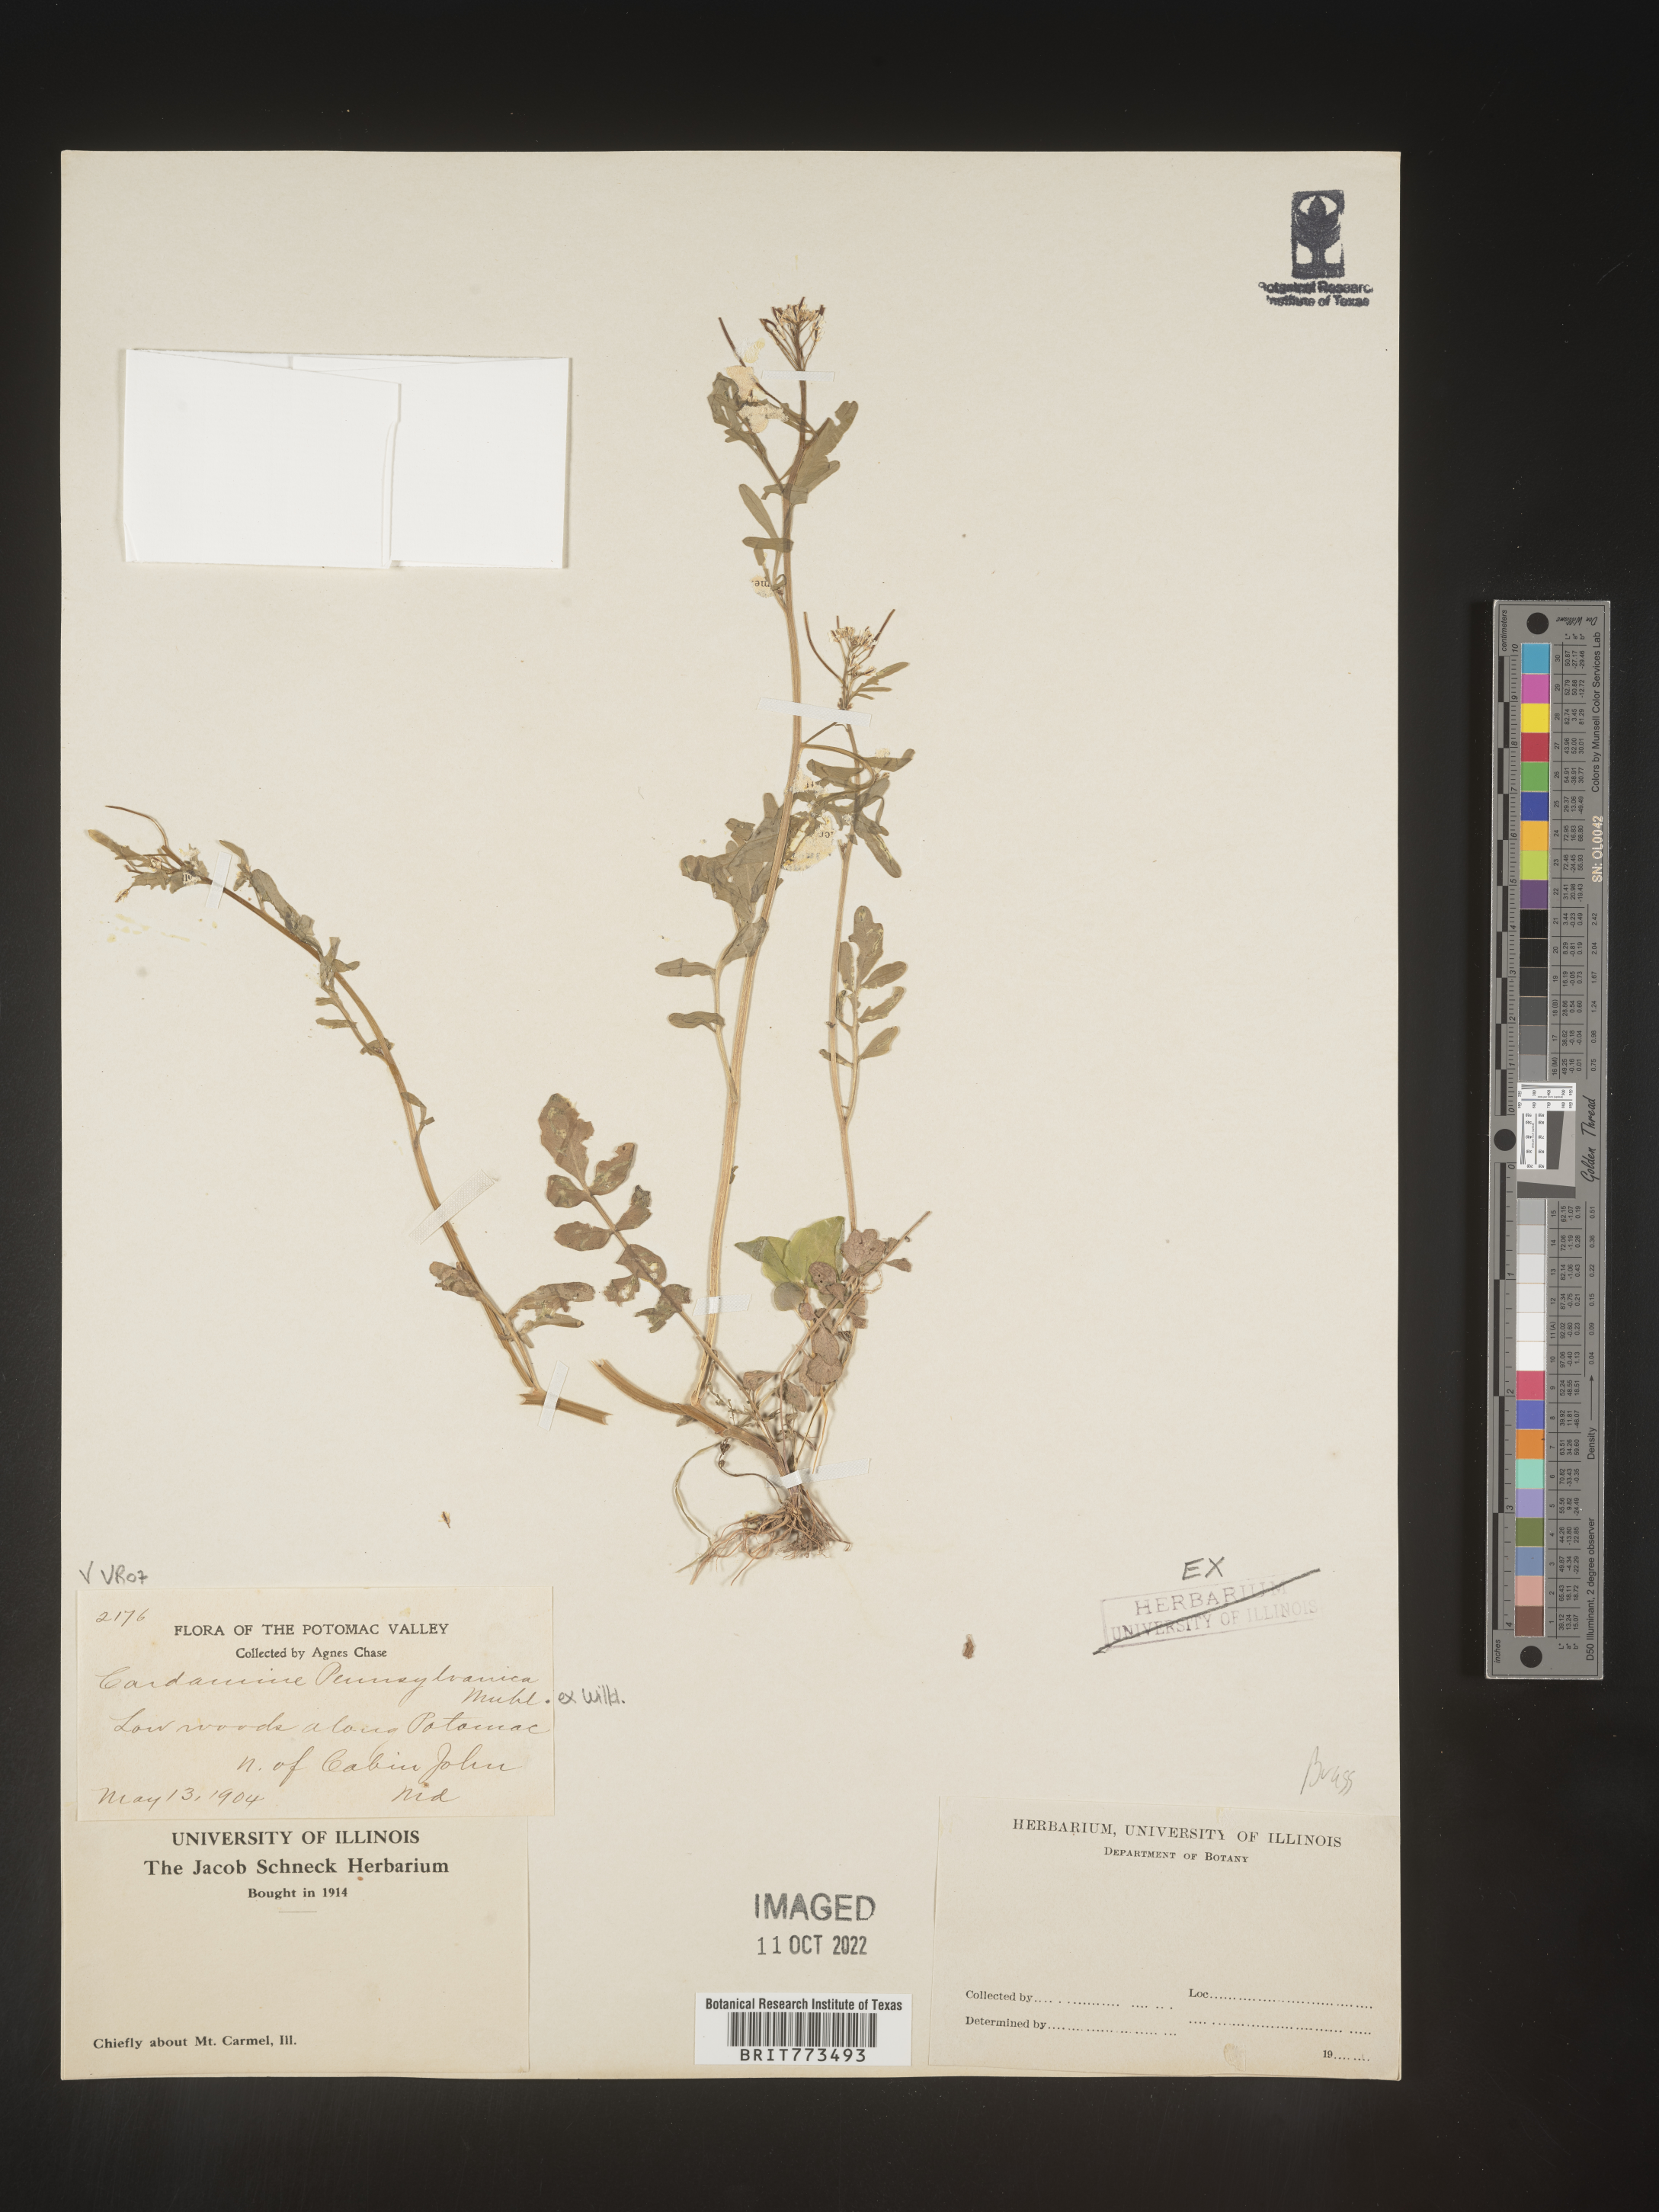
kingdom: Plantae
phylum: Tracheophyta
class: Magnoliopsida
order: Brassicales
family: Brassicaceae
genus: Cardamine
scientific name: Cardamine pensylvanica
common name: Pennsylvania bittercress
